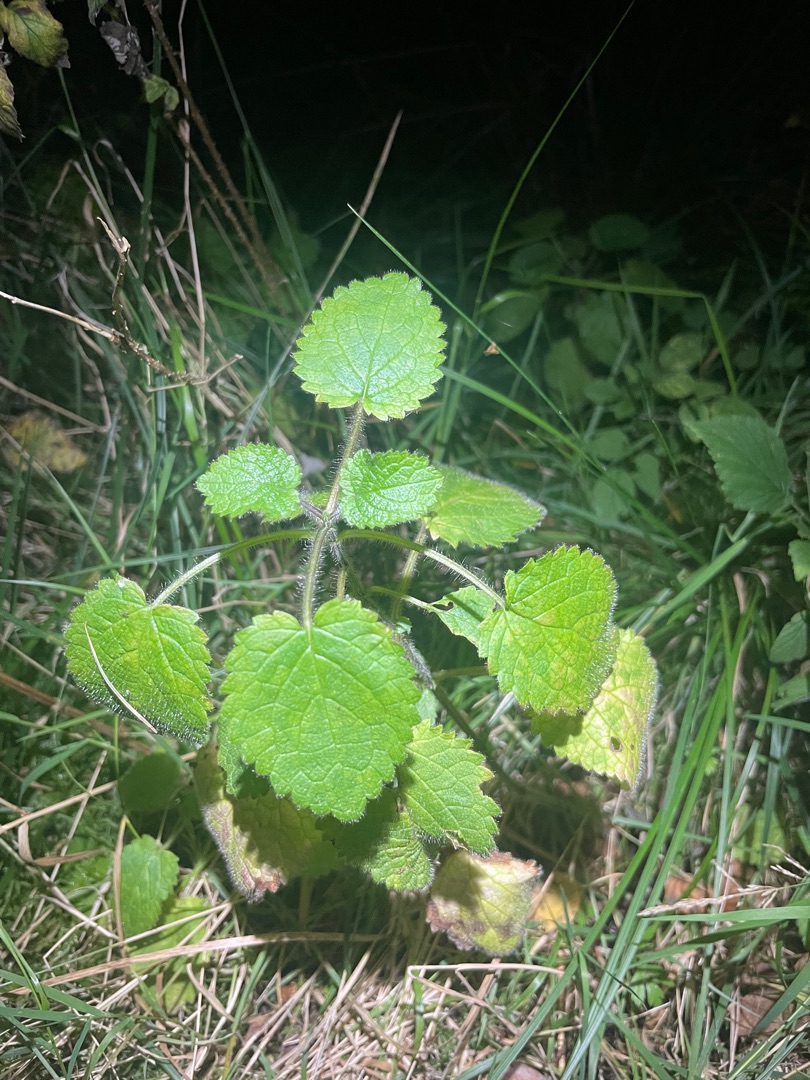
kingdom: Plantae
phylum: Tracheophyta
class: Magnoliopsida
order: Lamiales
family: Lamiaceae
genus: Stachys
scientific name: Stachys sylvatica
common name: Skov-galtetand
